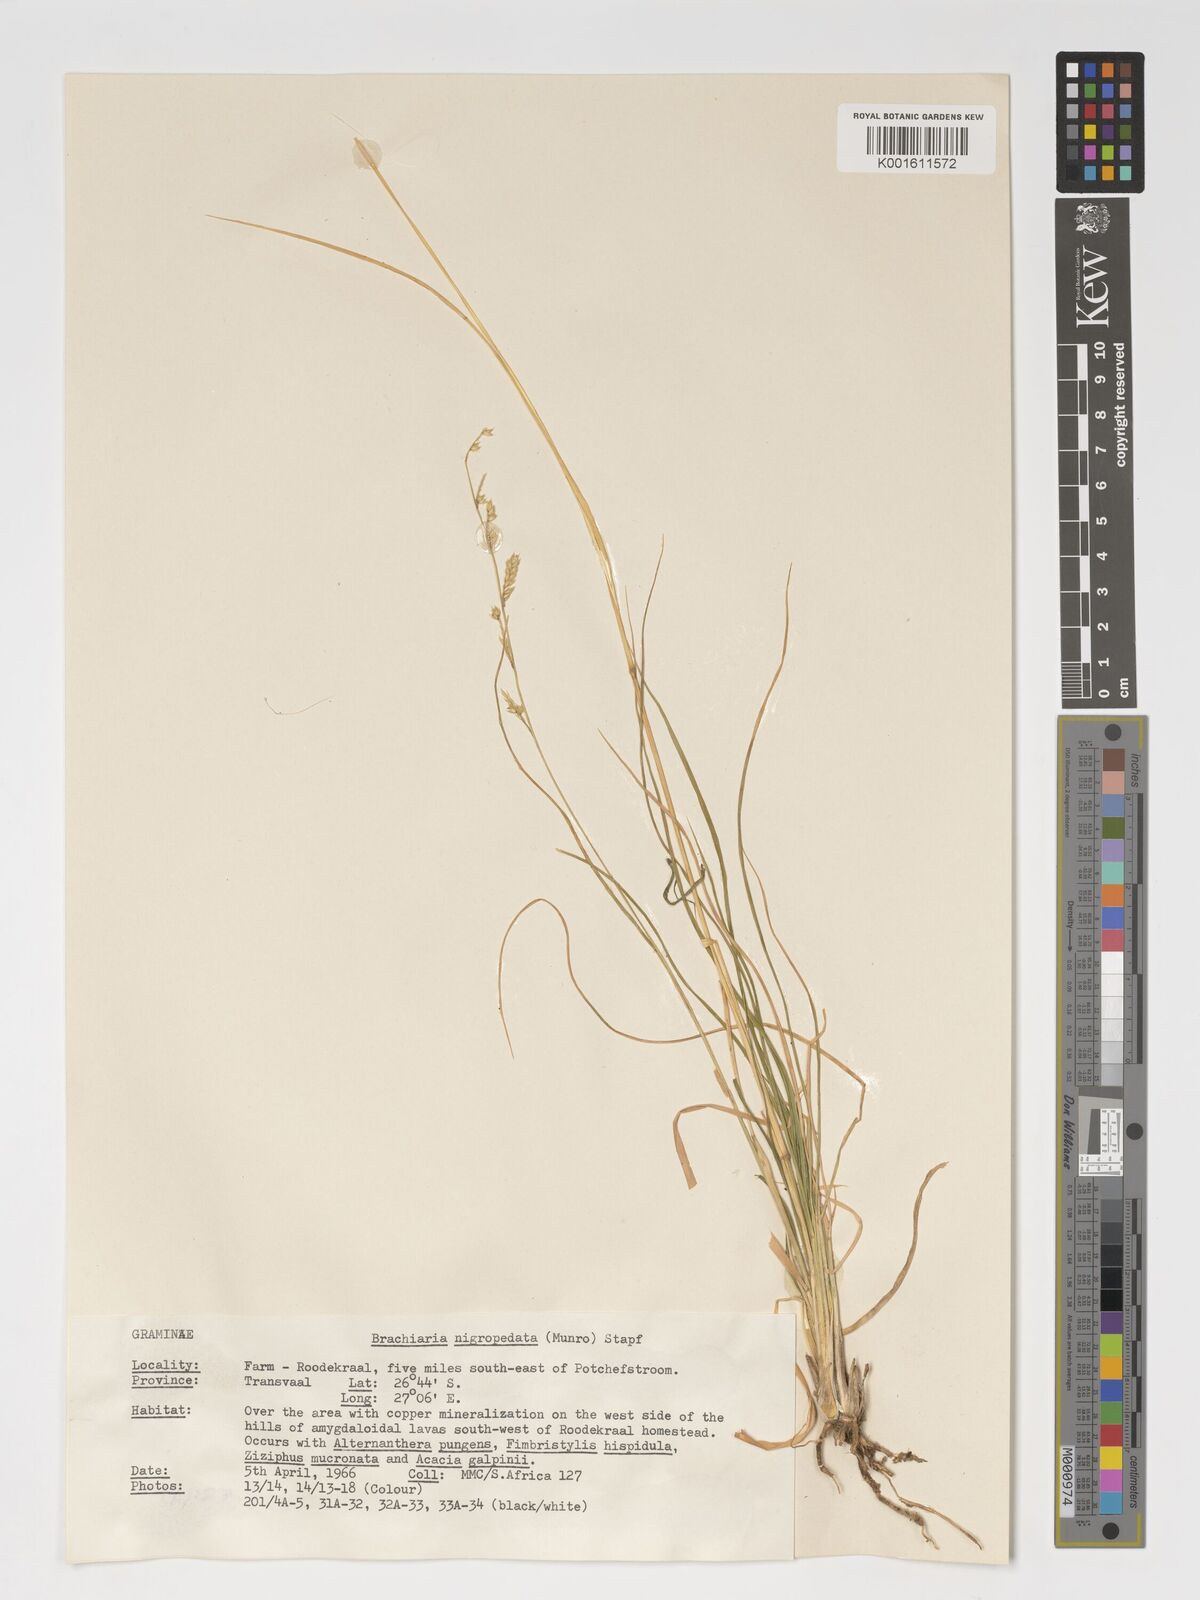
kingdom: Plantae
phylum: Tracheophyta
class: Liliopsida
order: Poales
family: Poaceae
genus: Urochloa
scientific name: Urochloa nigropedata
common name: Spotted signal grass
